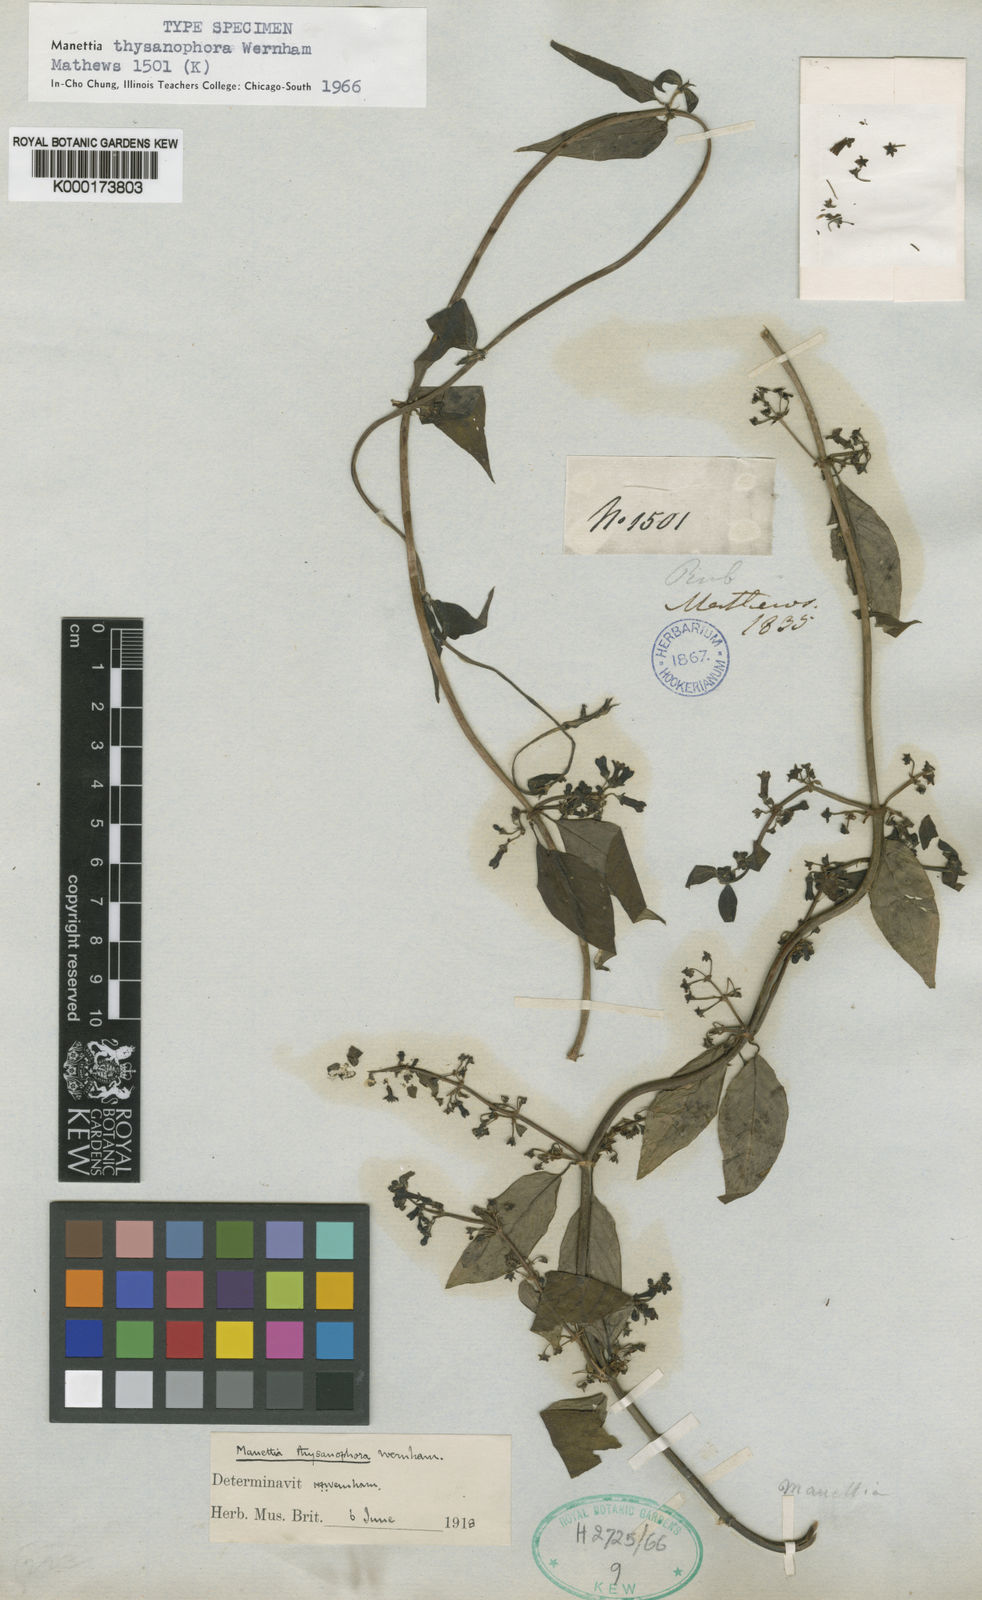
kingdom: Plantae
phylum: Tracheophyta
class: Magnoliopsida
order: Gentianales
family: Rubiaceae
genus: Manettia
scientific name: Manettia thysanophora
